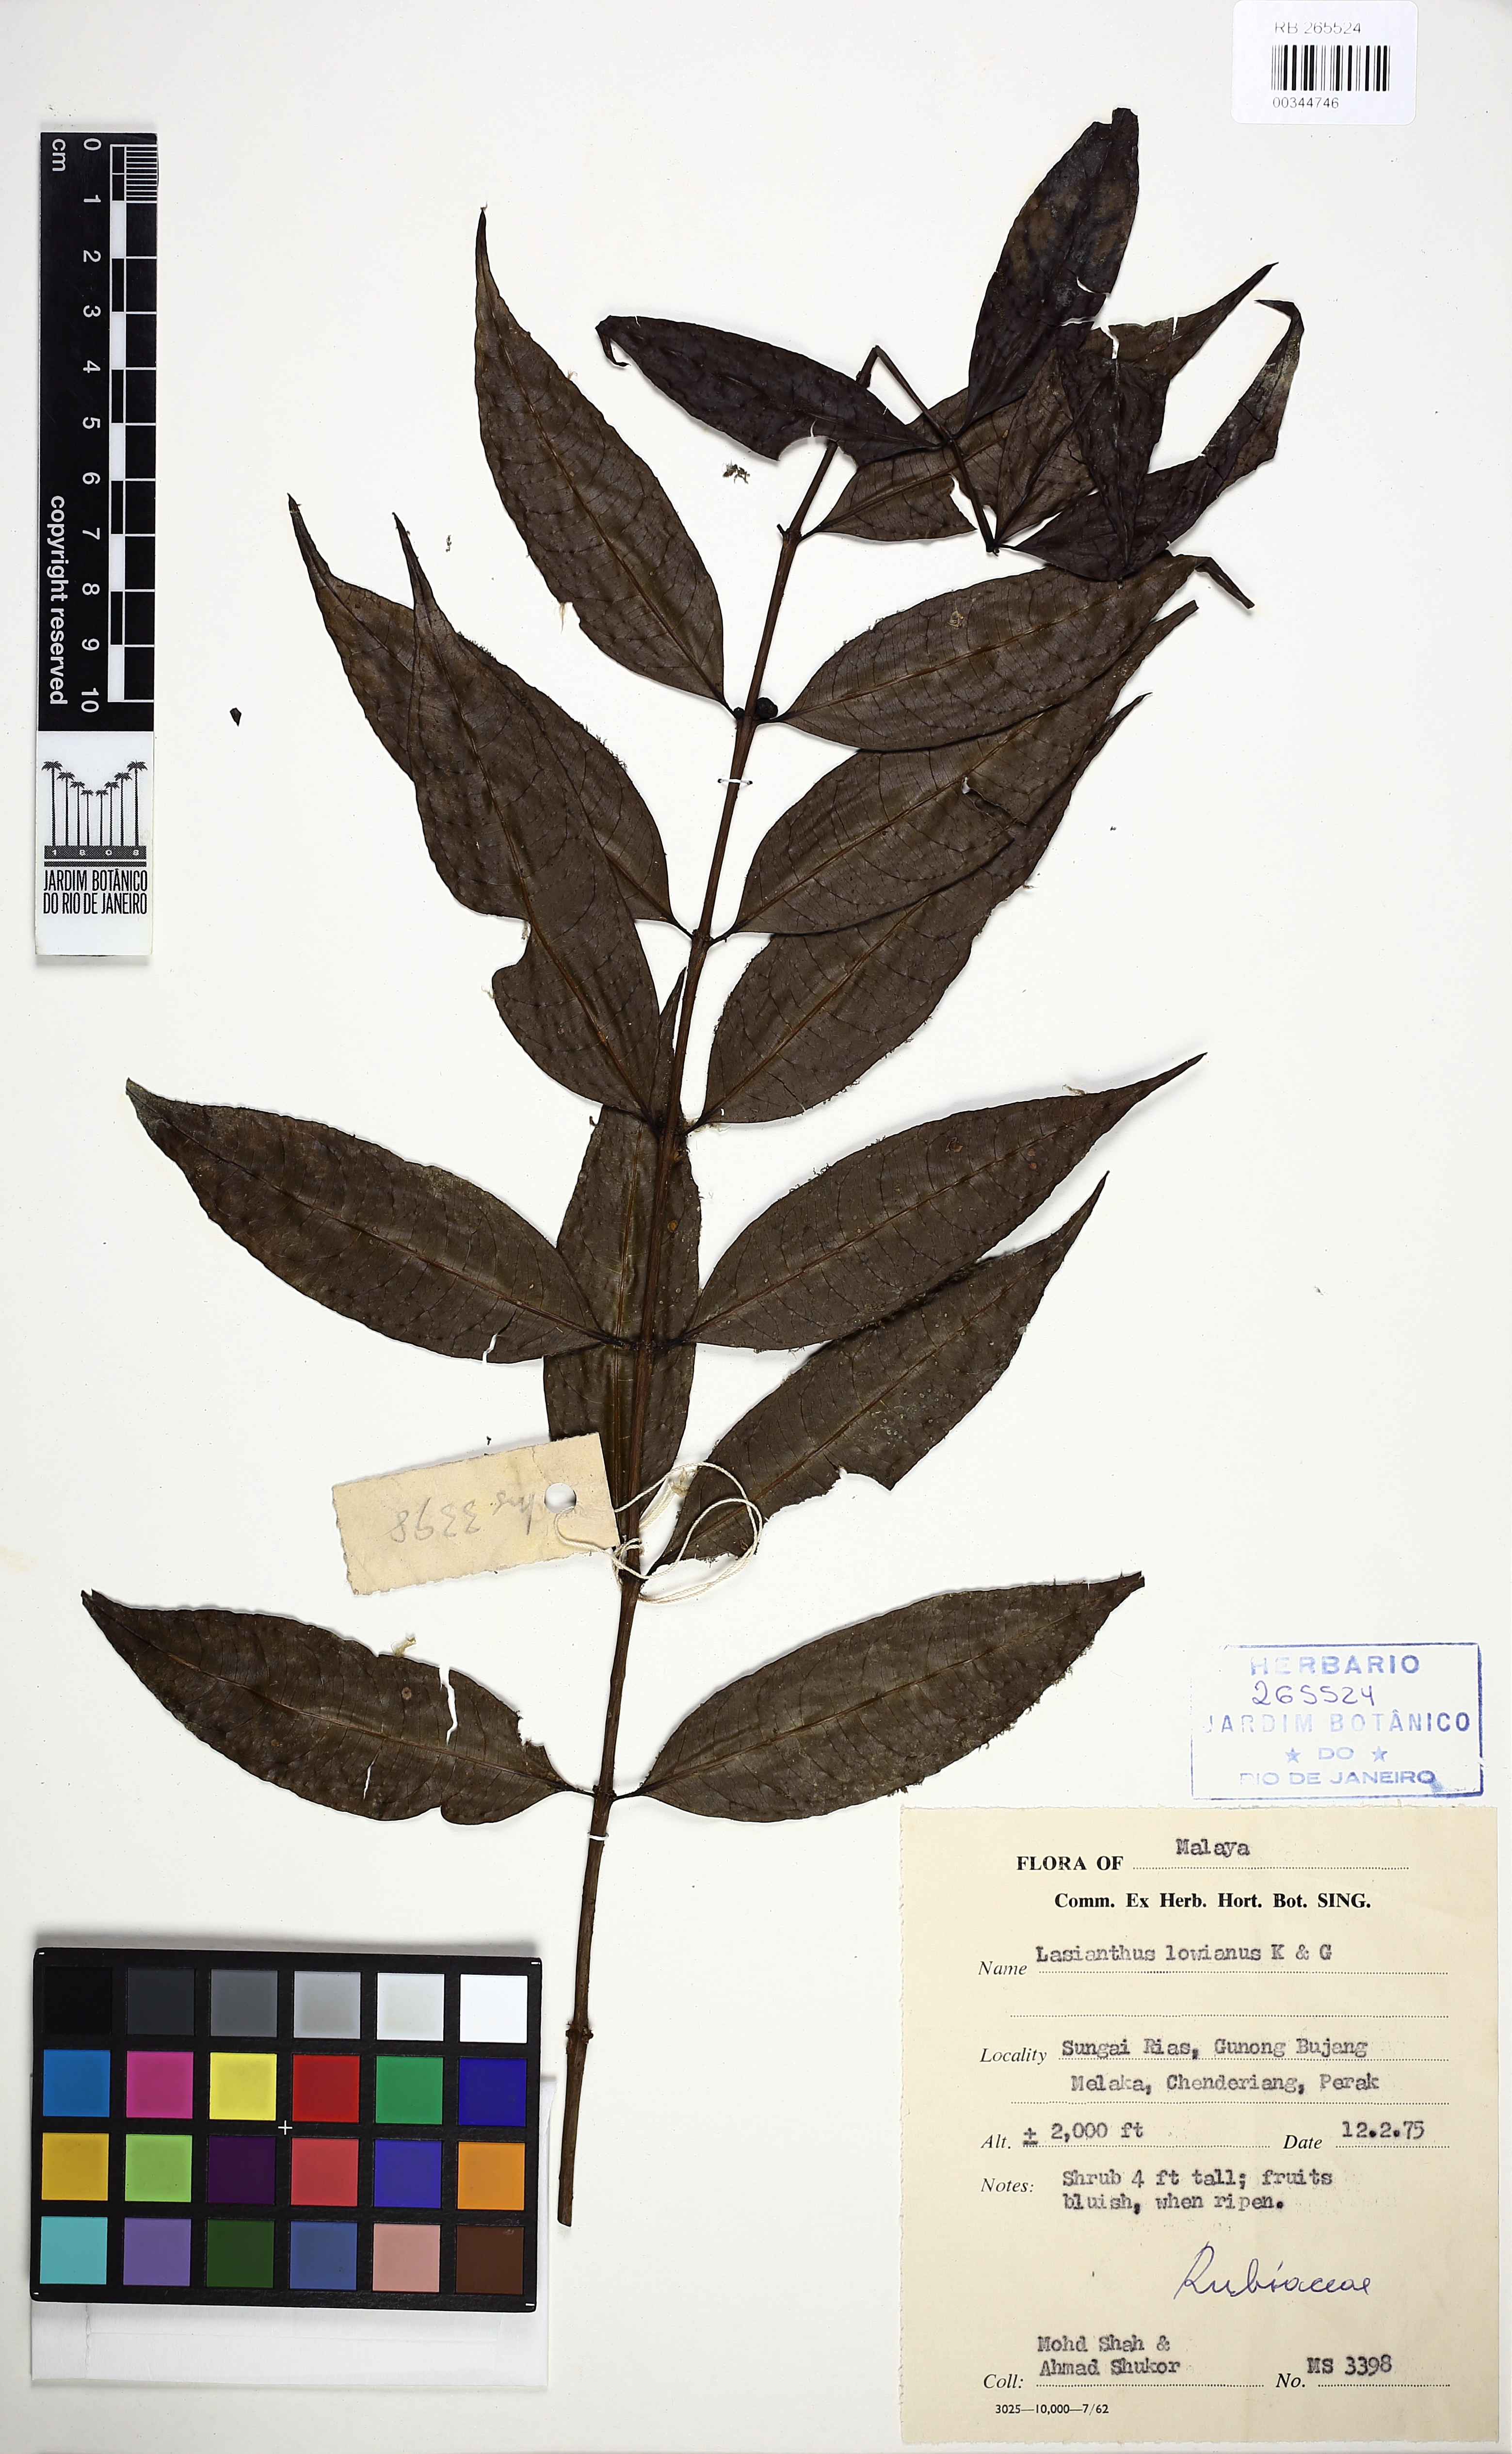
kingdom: Plantae
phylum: Tracheophyta
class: Magnoliopsida
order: Gentianales
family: Rubiaceae
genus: Paralasianthus
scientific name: Paralasianthus lowianus
